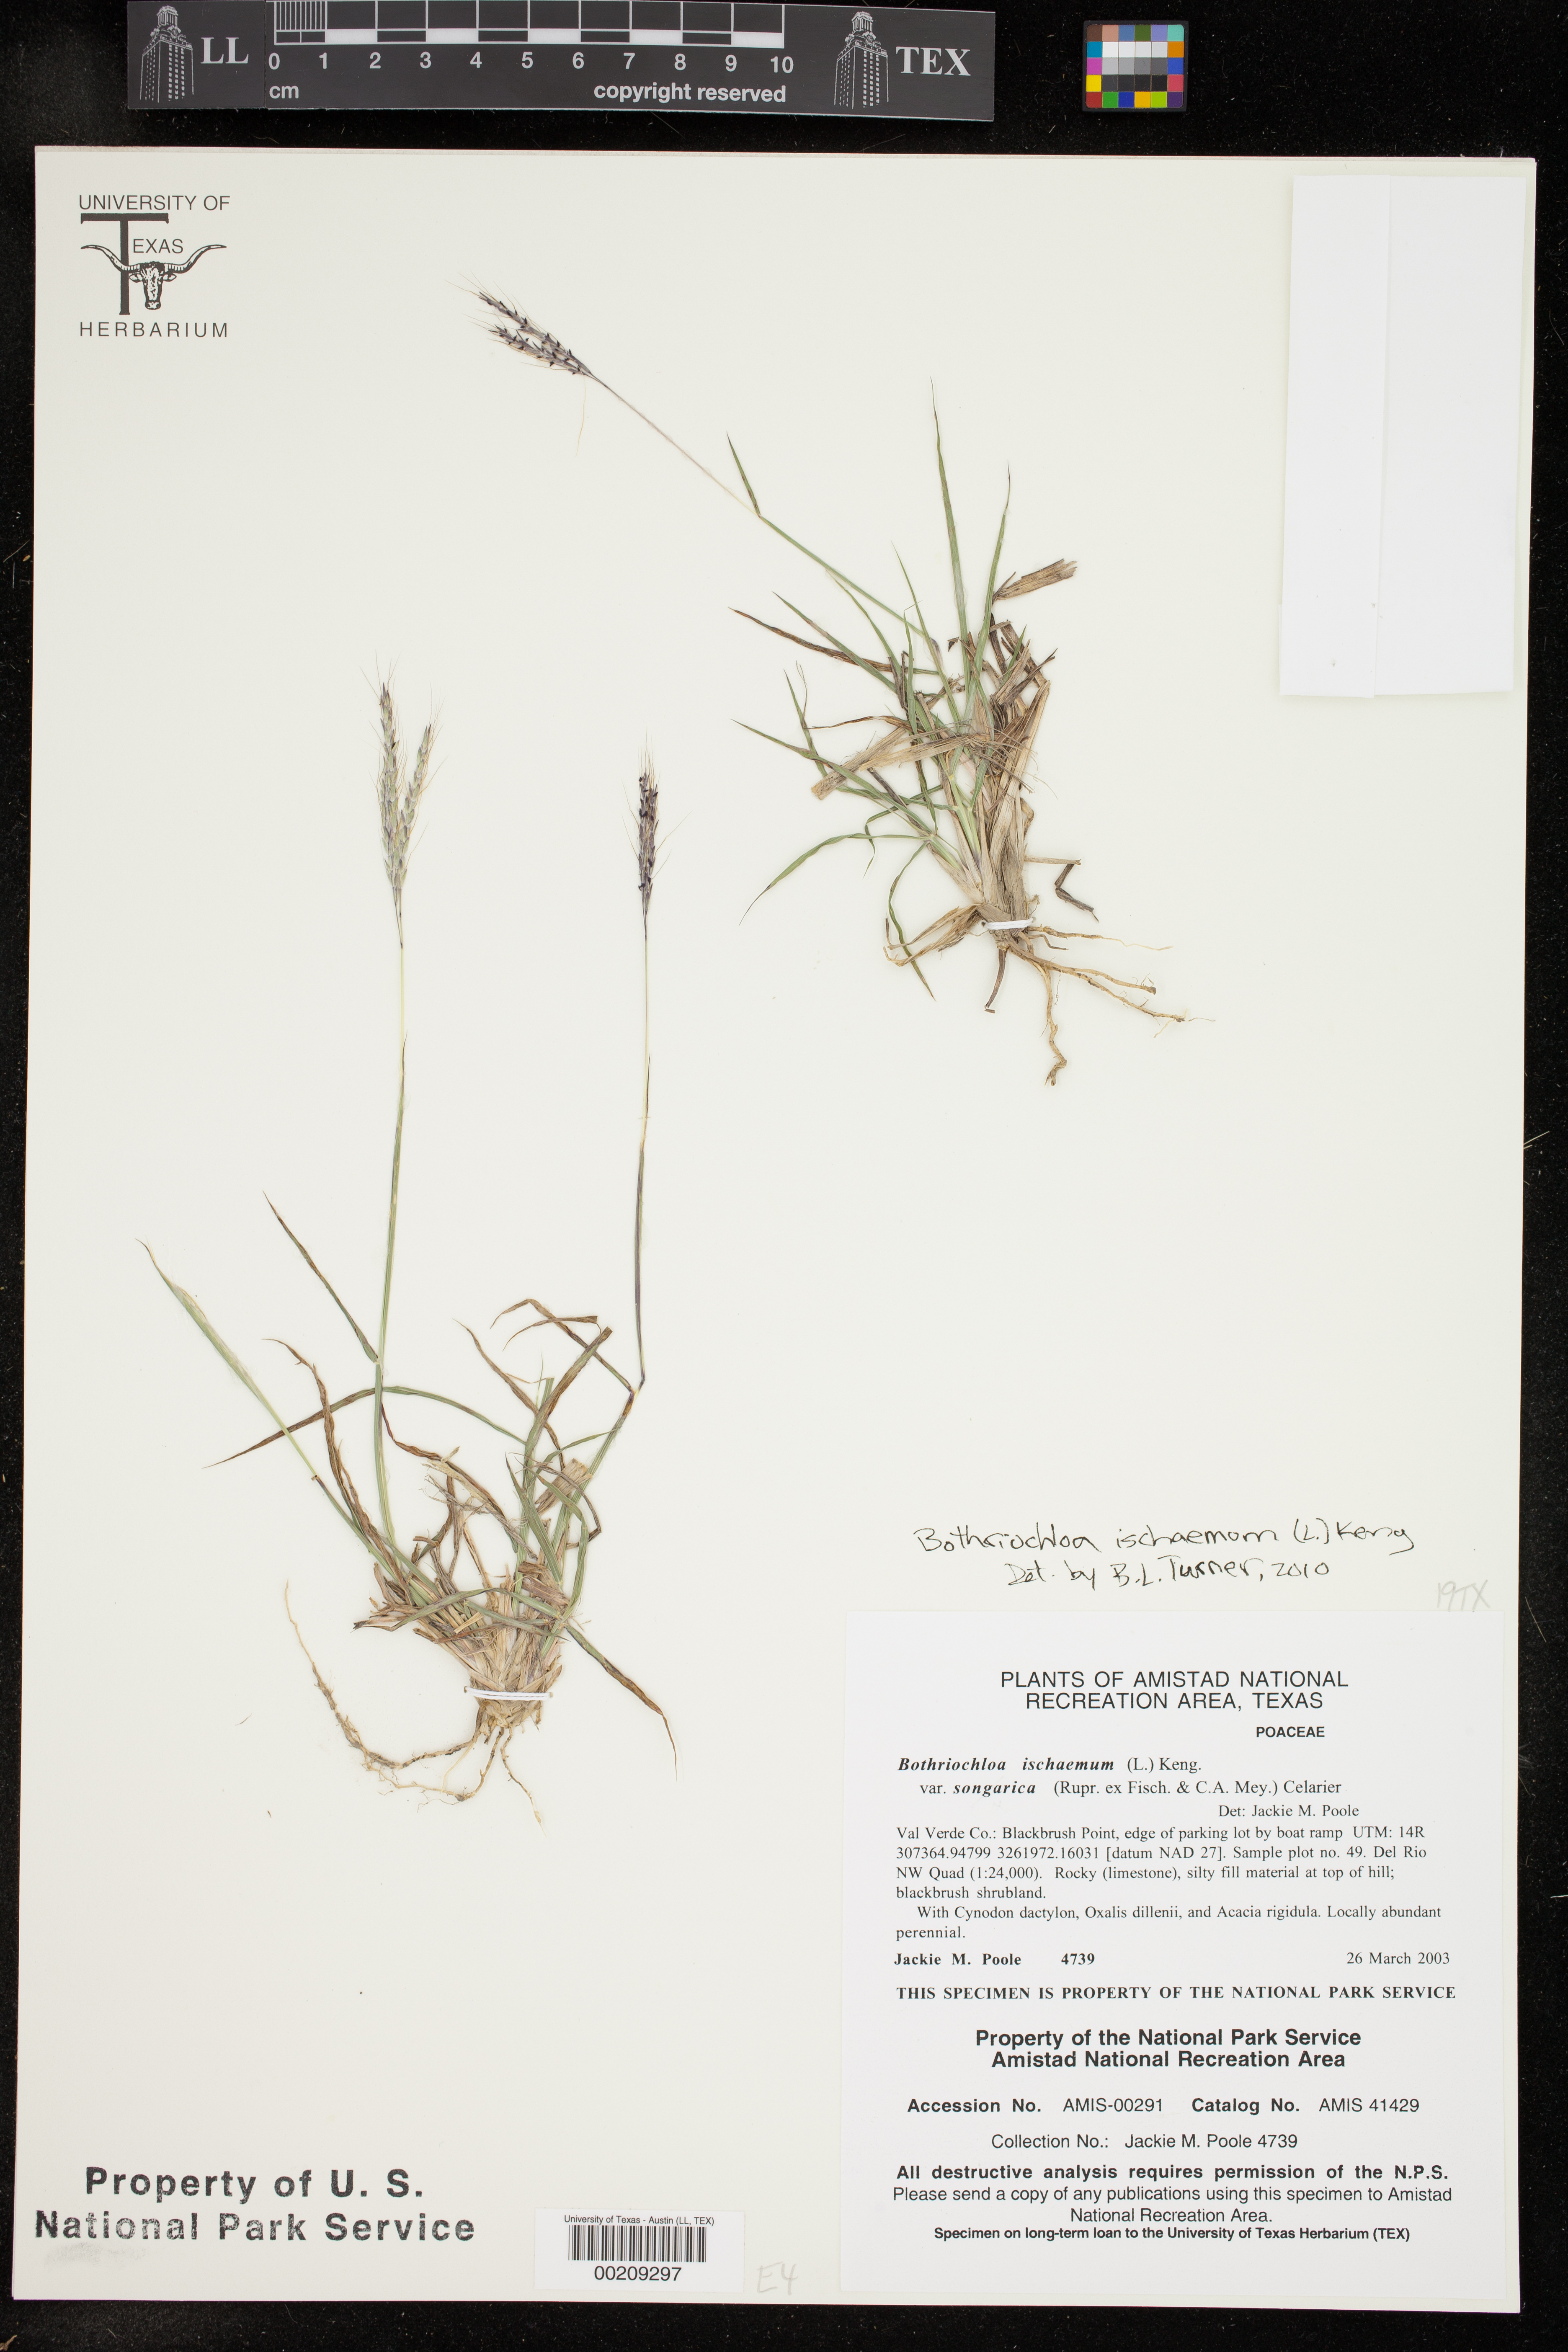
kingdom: Plantae
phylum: Tracheophyta
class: Liliopsida
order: Poales
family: Poaceae
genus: Bothriochloa
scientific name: Bothriochloa ischaemum
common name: Yellow bluestem
